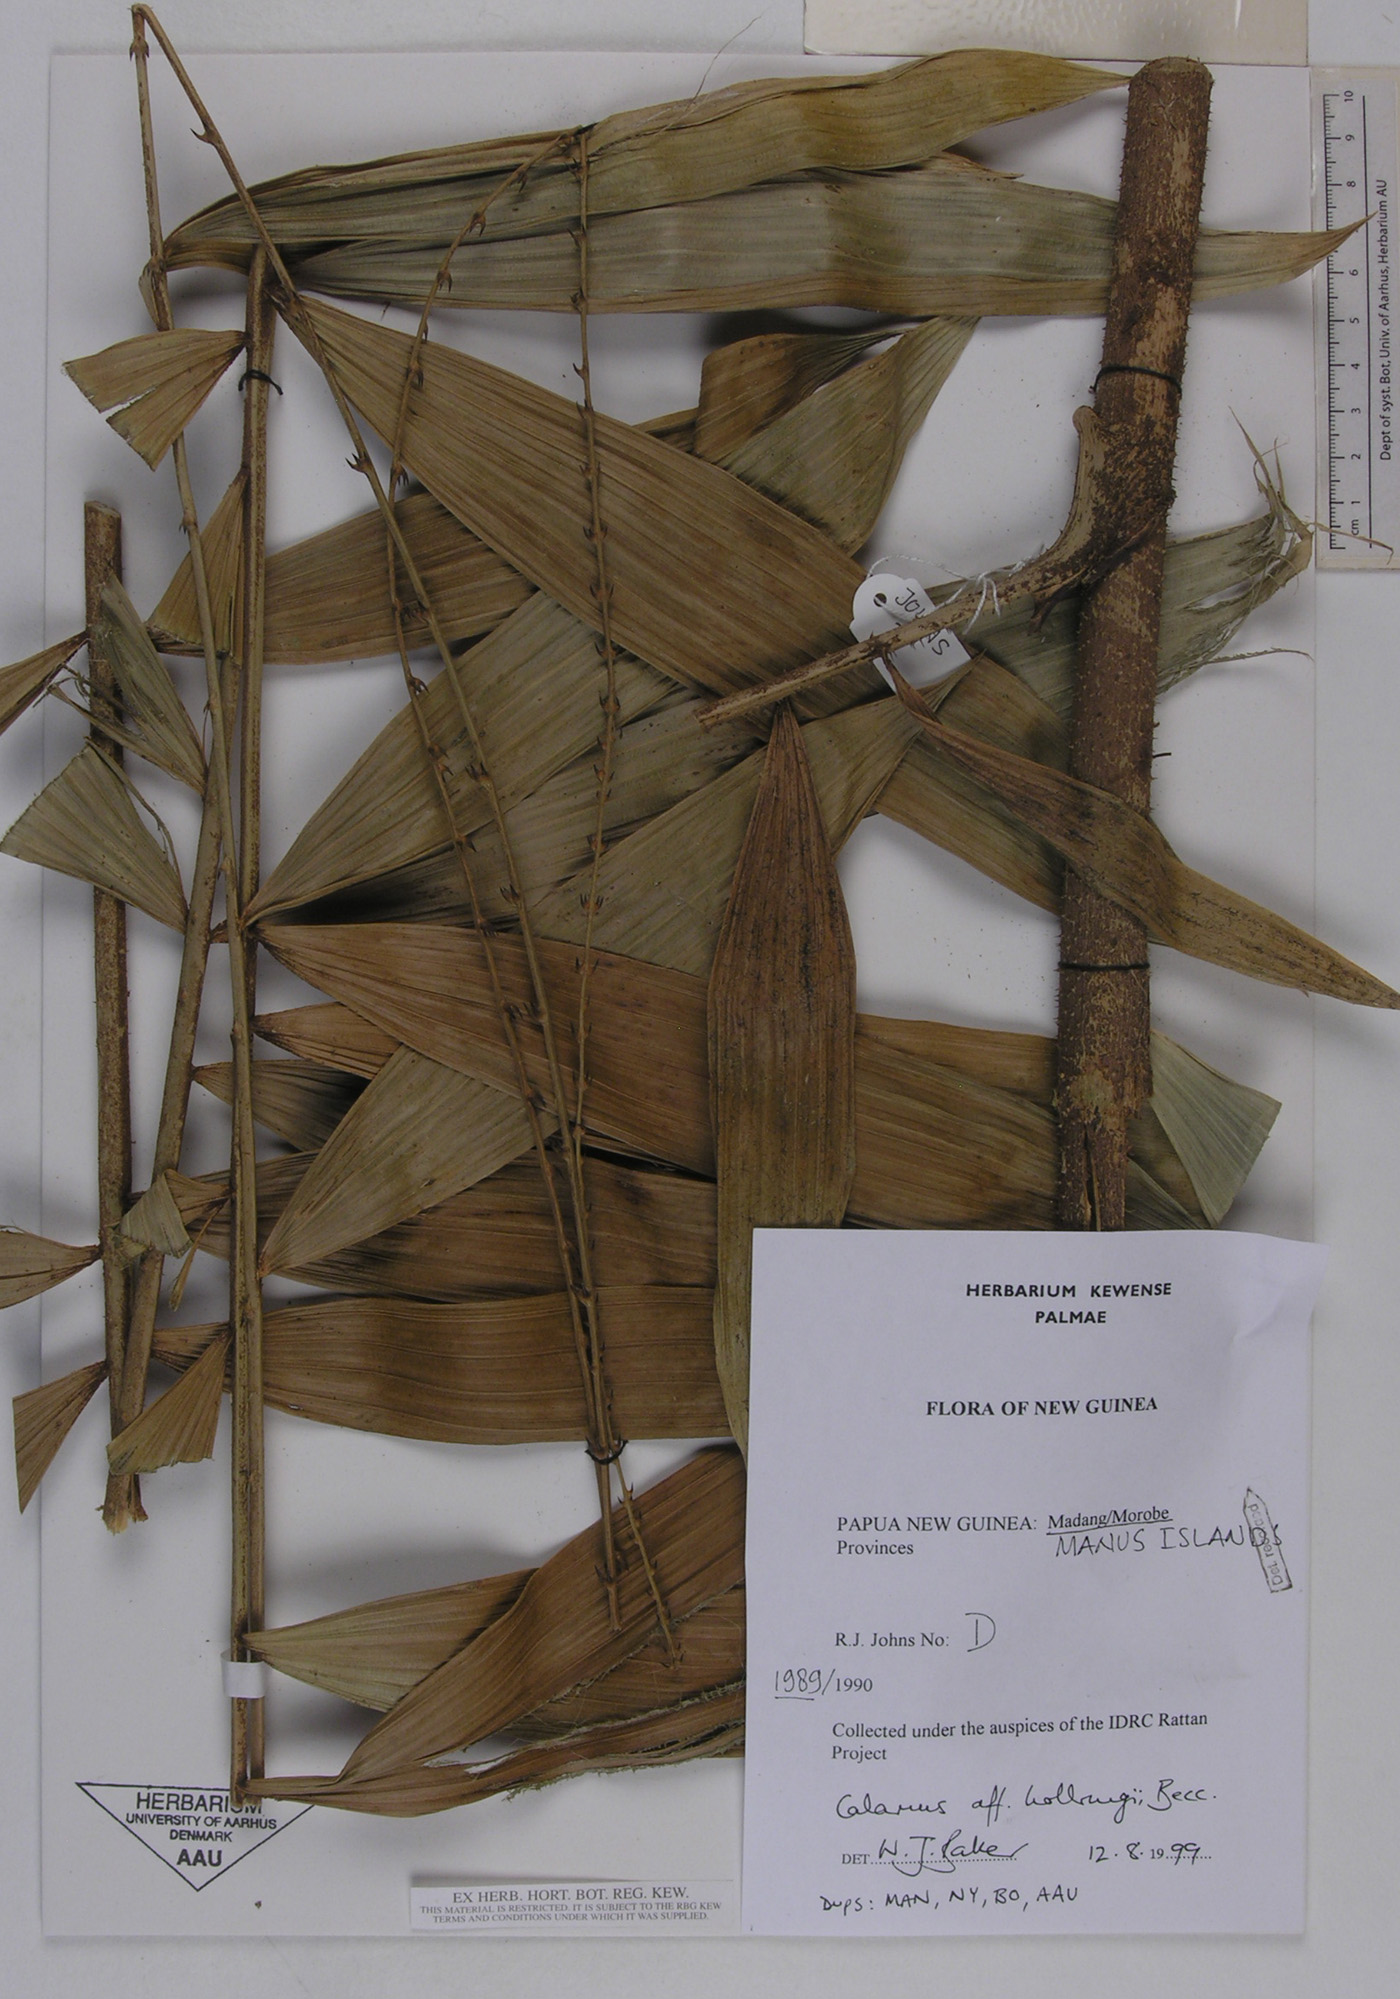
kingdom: Plantae
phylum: Tracheophyta
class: Liliopsida
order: Arecales
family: Arecaceae
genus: Calamus
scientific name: Calamus aruensis
